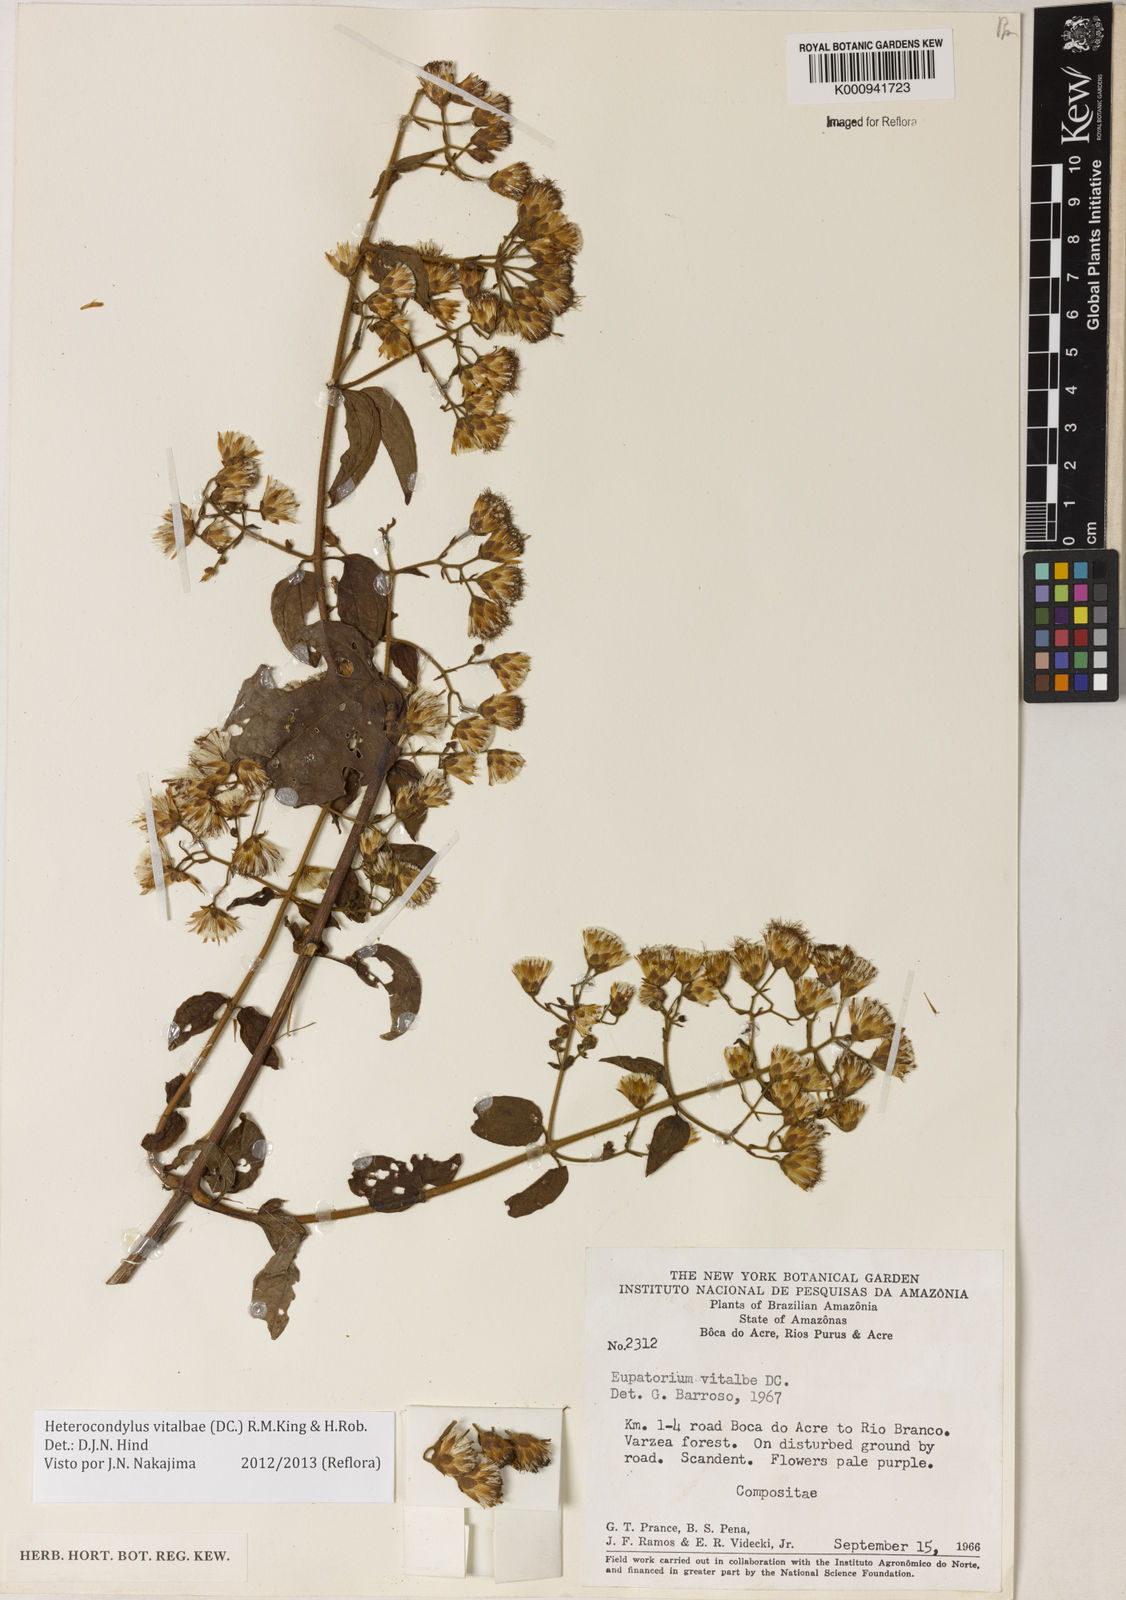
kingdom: Plantae
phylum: Tracheophyta
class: Magnoliopsida
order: Asterales
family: Asteraceae
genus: Heterocondylus
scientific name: Heterocondylus vitalbae
